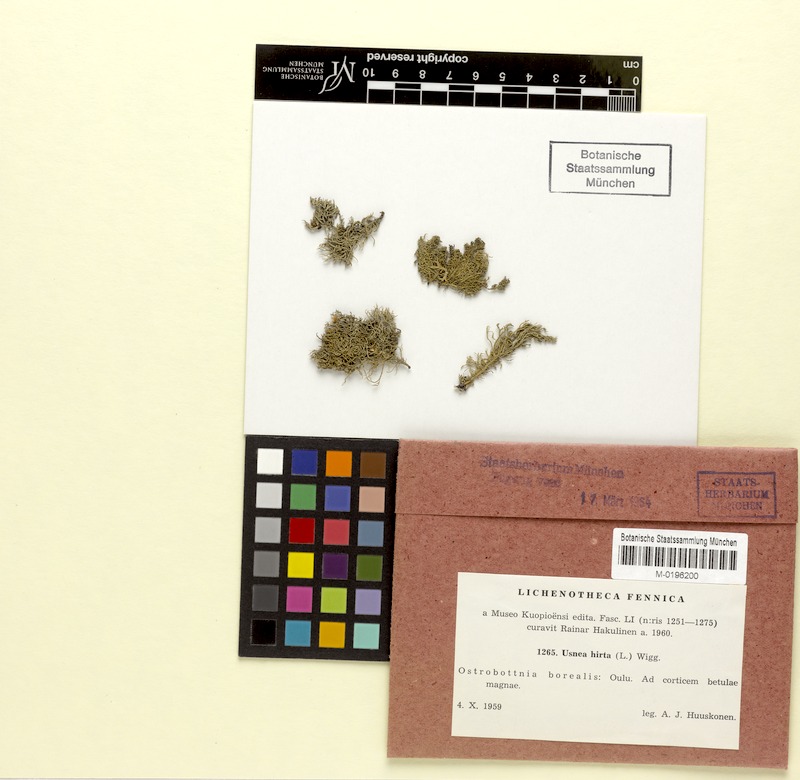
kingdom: Fungi
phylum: Ascomycota
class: Lecanoromycetes
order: Lecanorales
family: Parmeliaceae
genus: Usnea
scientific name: Usnea hirta
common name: Bristly beard lichen
